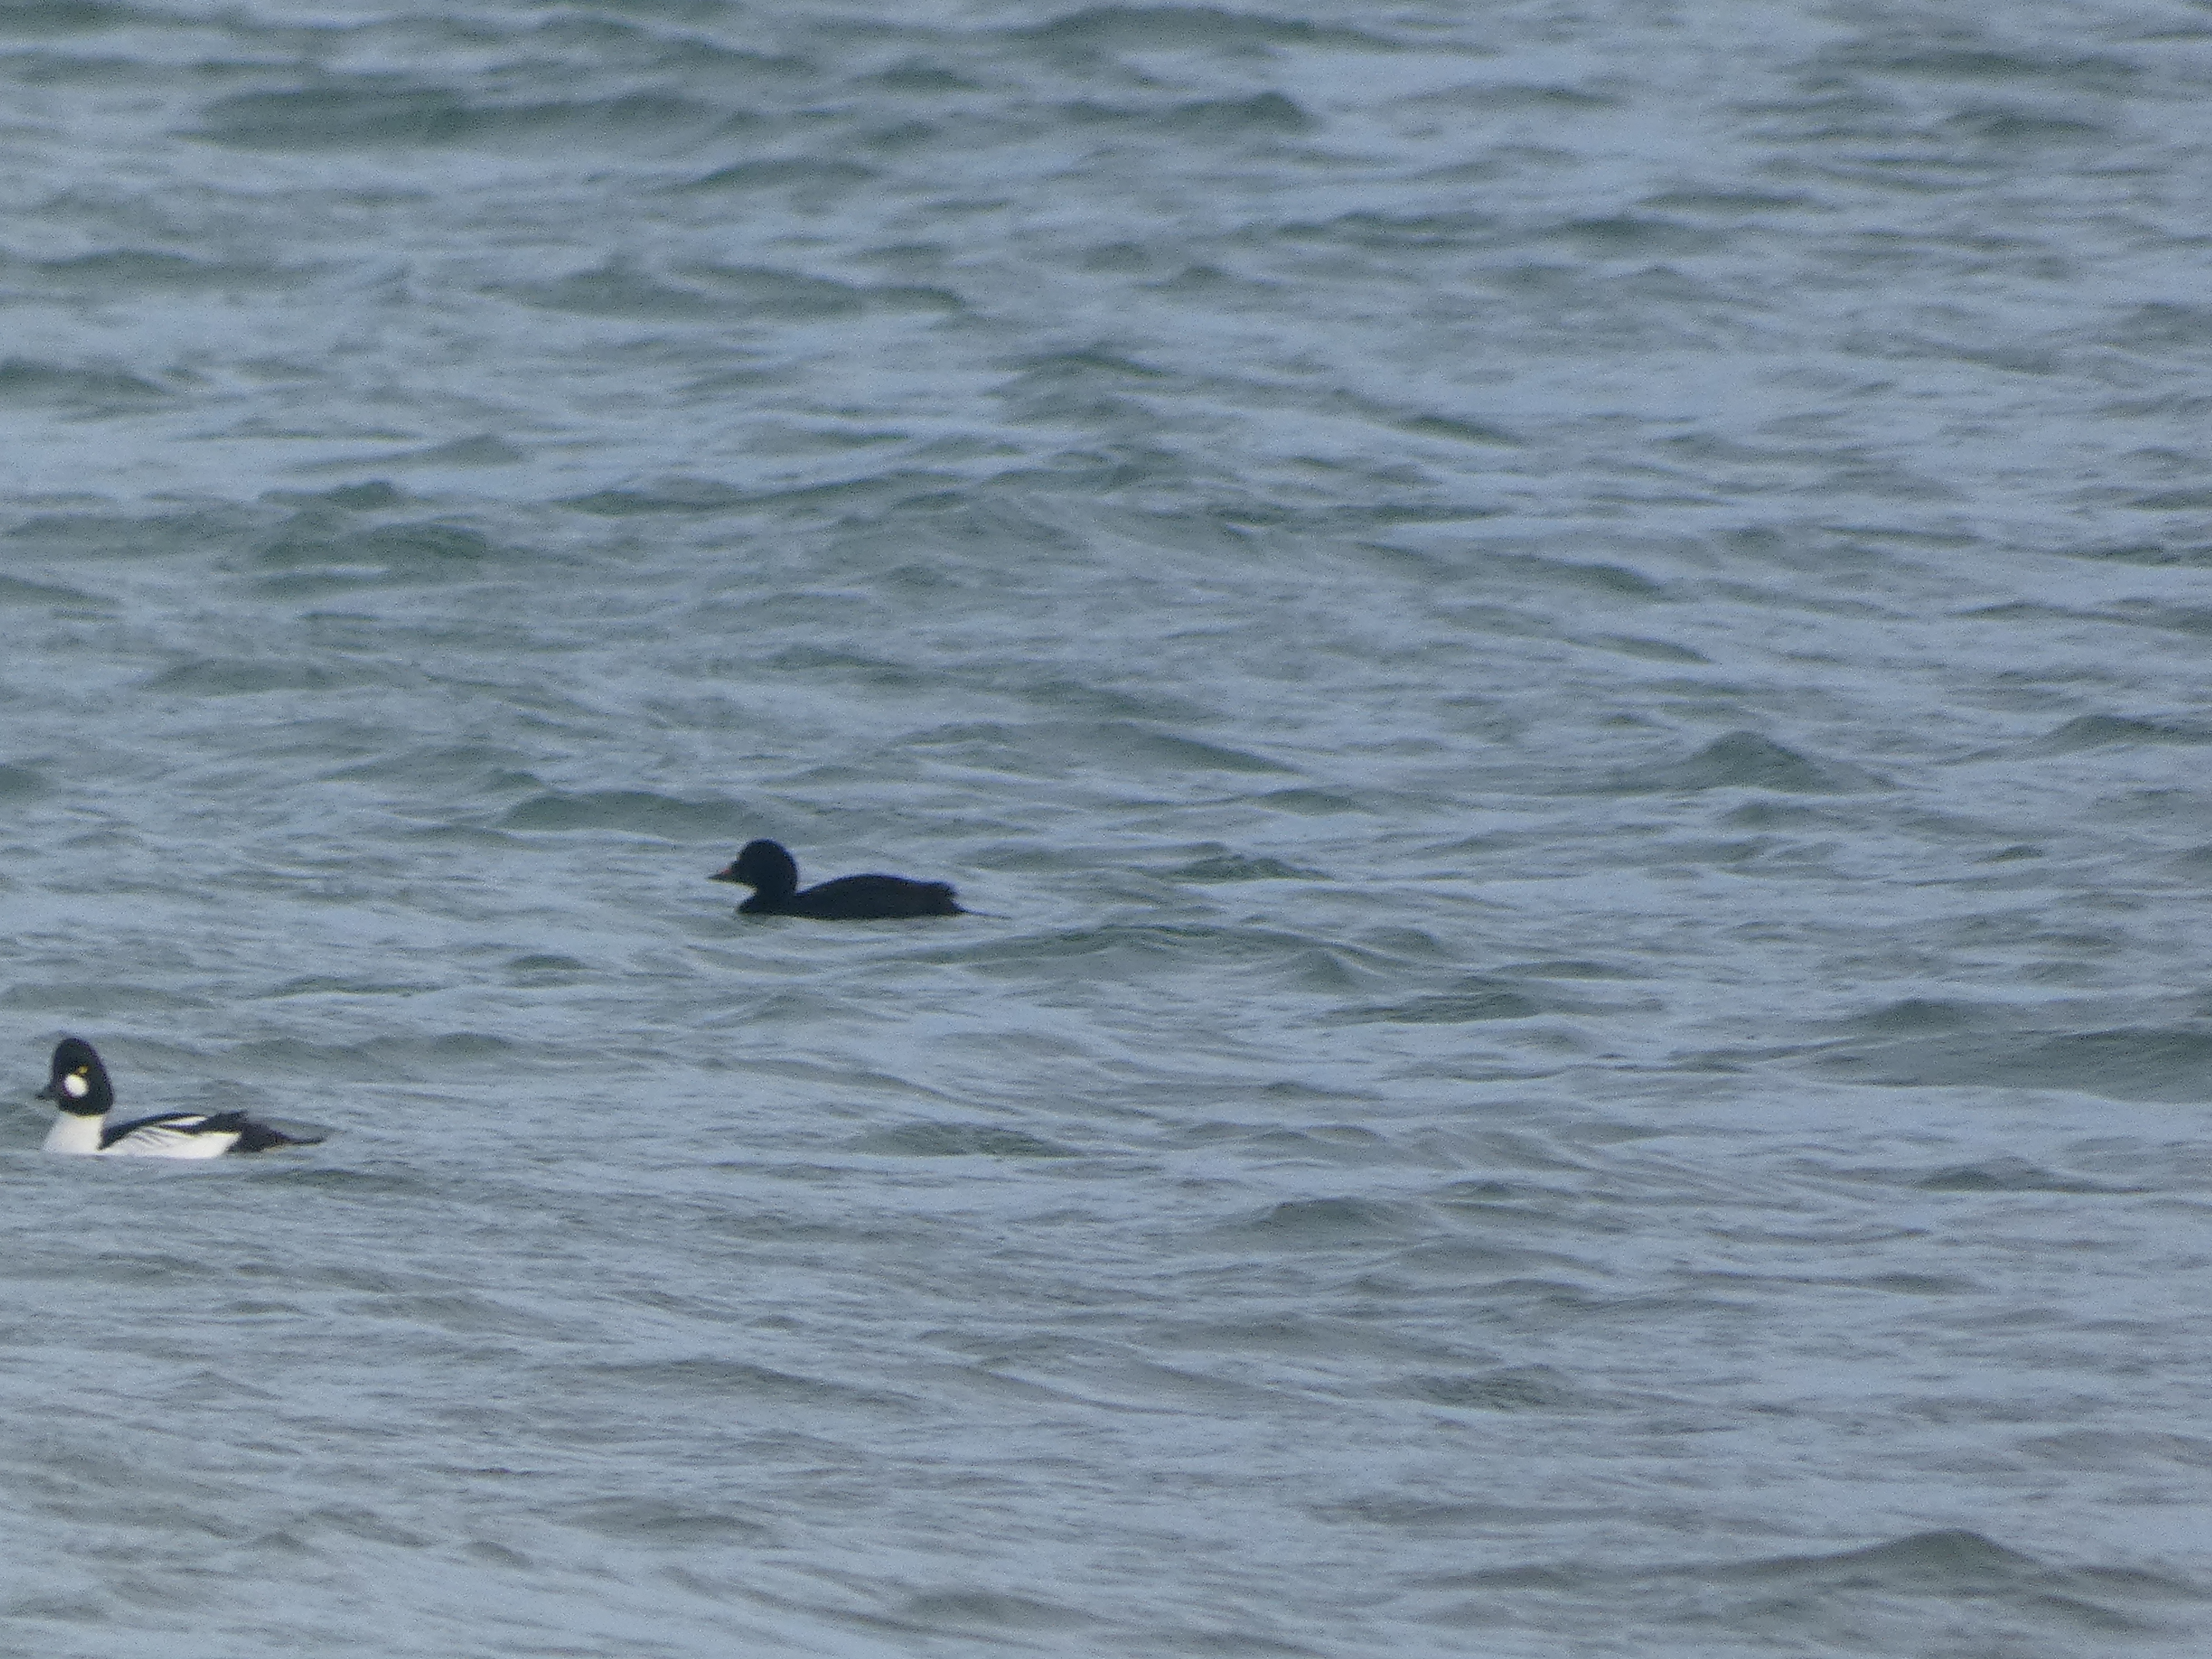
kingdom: Animalia
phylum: Chordata
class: Aves
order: Anseriformes
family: Anatidae
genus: Bucephala
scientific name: Bucephala clangula
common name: Hvinand
